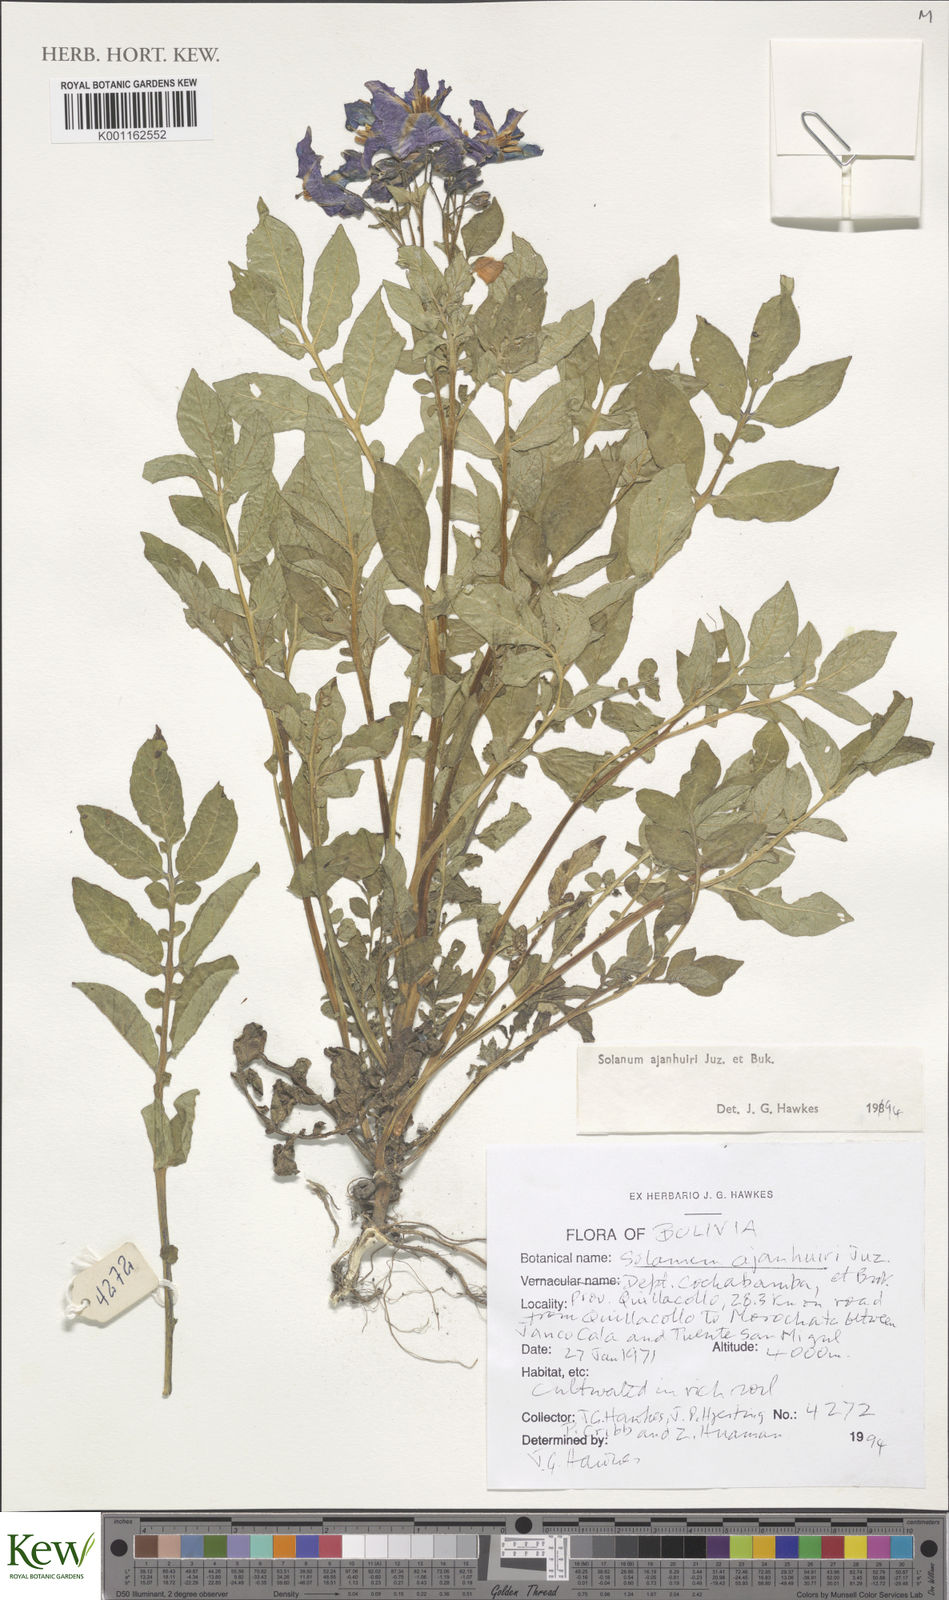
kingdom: Plantae
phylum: Tracheophyta
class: Magnoliopsida
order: Solanales
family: Solanaceae
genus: Solanum
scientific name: Solanum ajanhuiri
